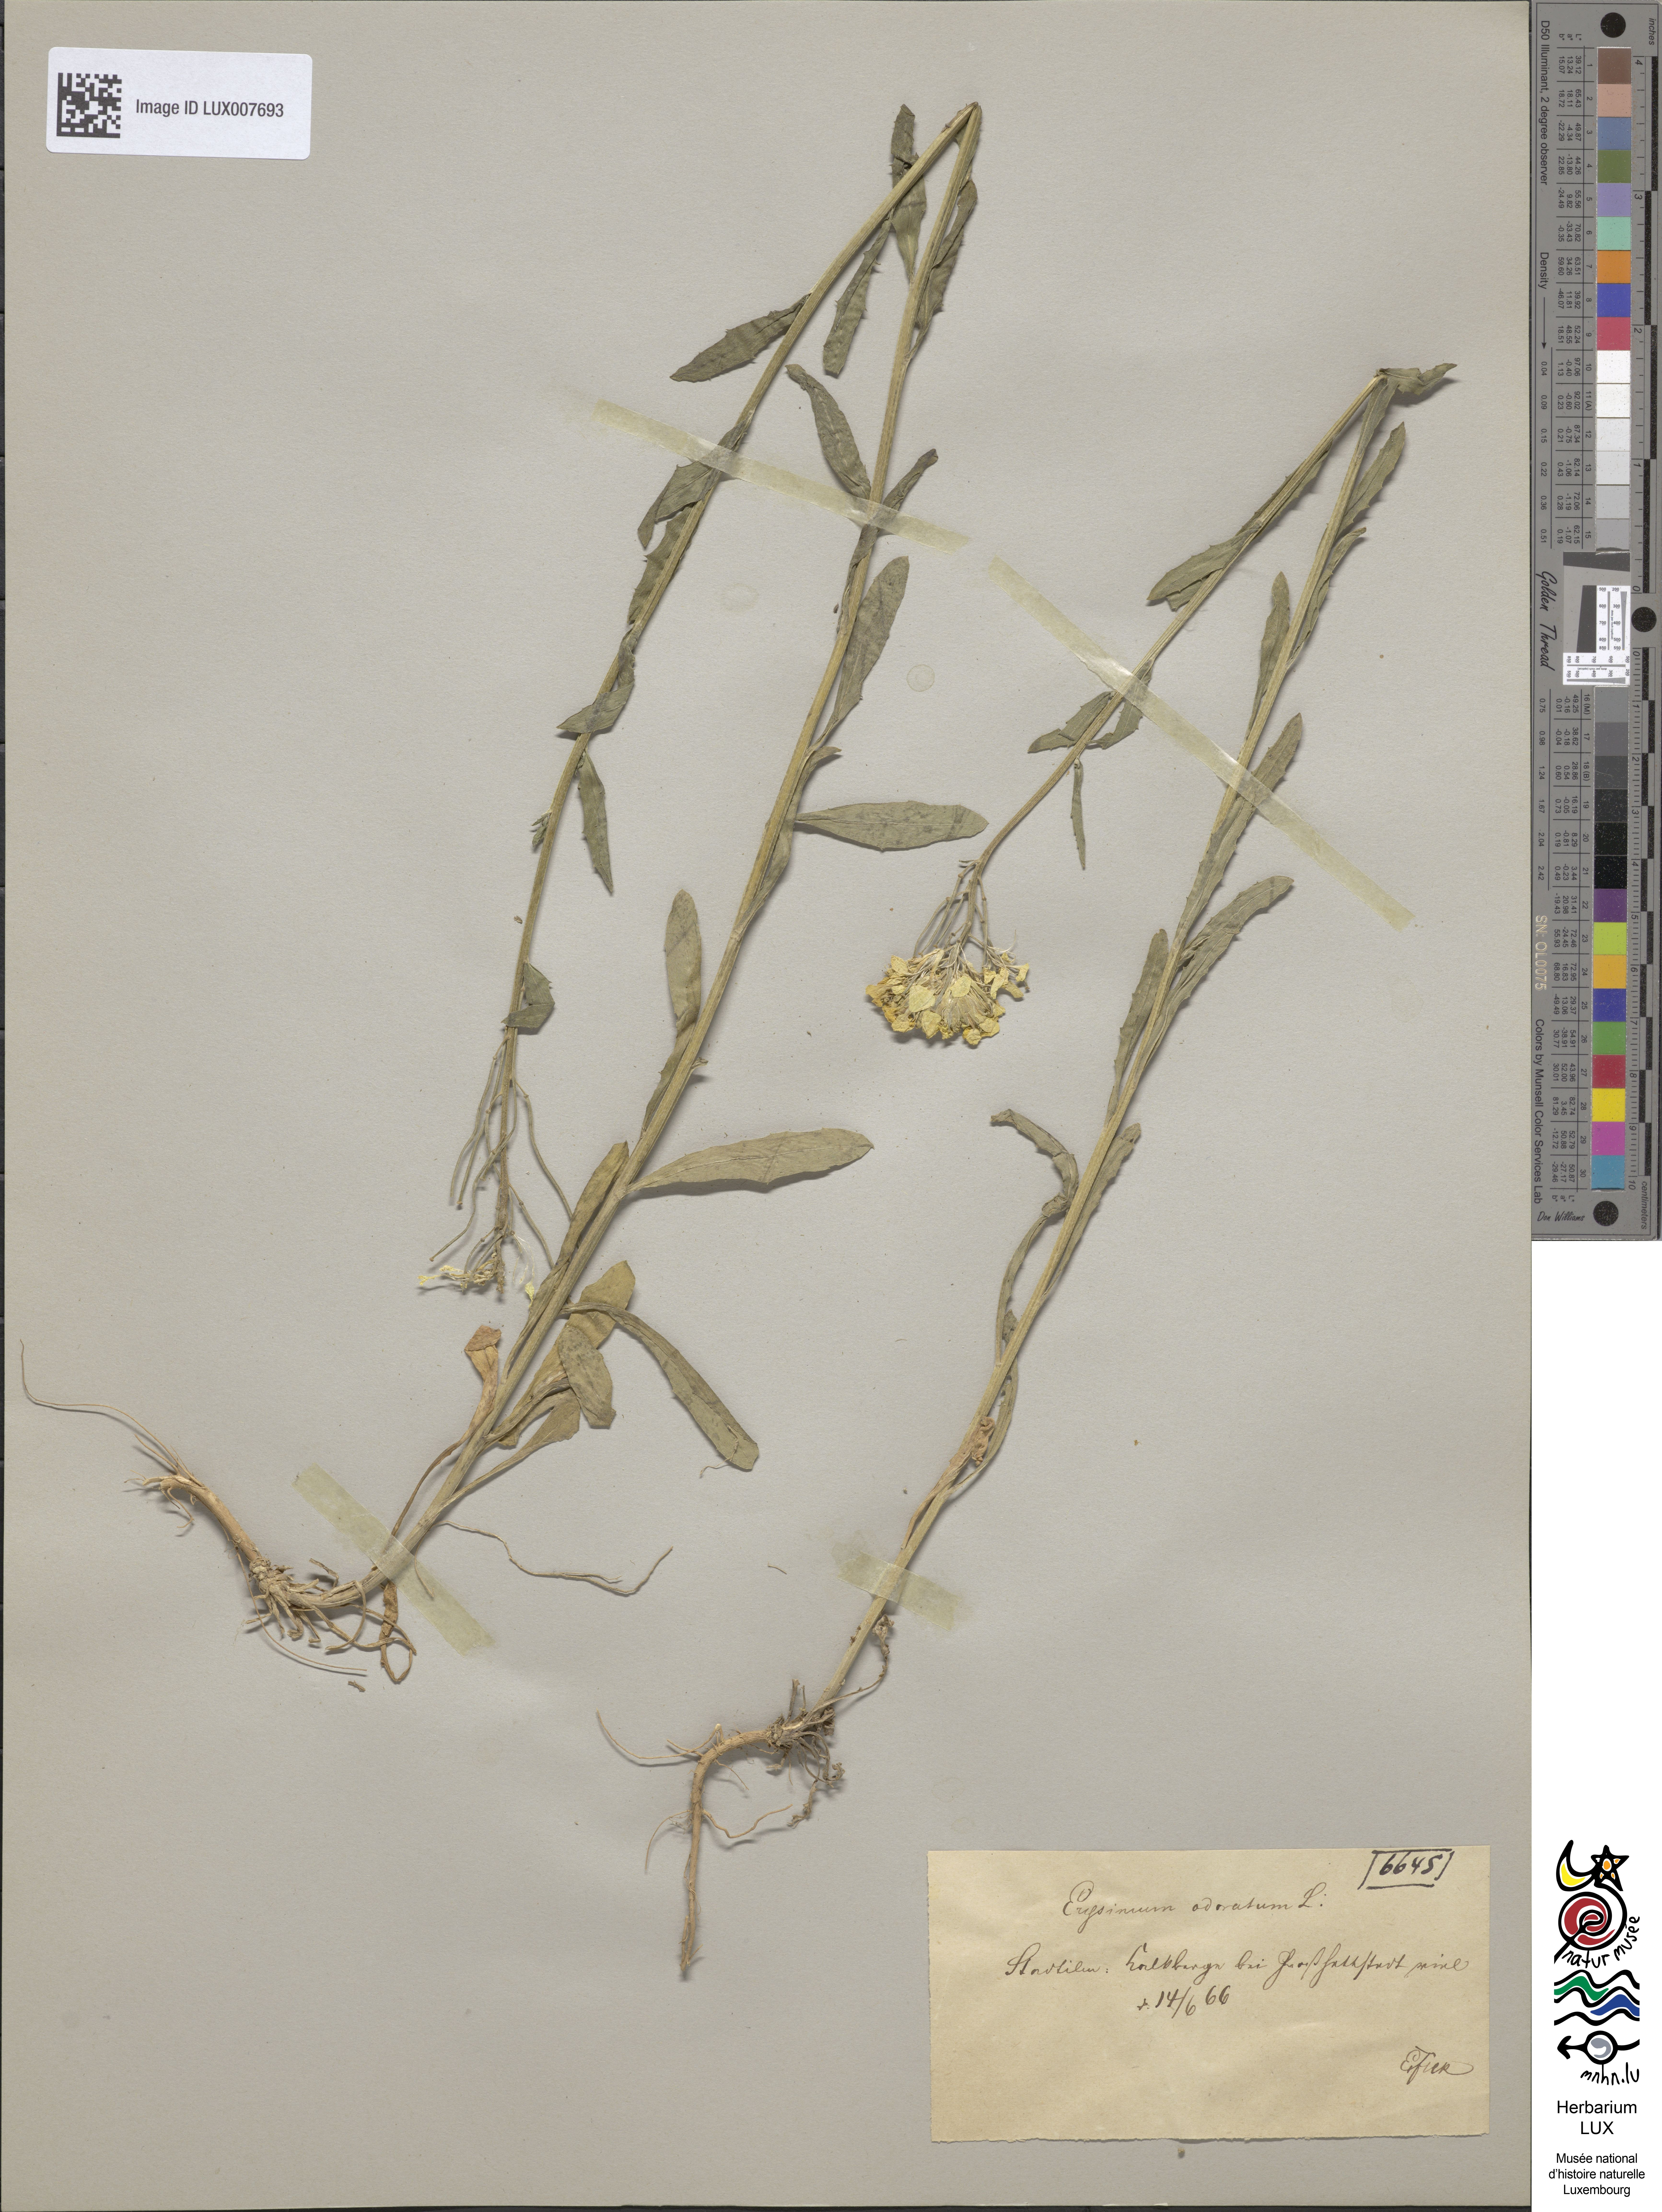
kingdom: Plantae
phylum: Tracheophyta
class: Magnoliopsida
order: Brassicales
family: Brassicaceae
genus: Erysimum
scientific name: Erysimum odoratum
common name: Smelly wallflower
